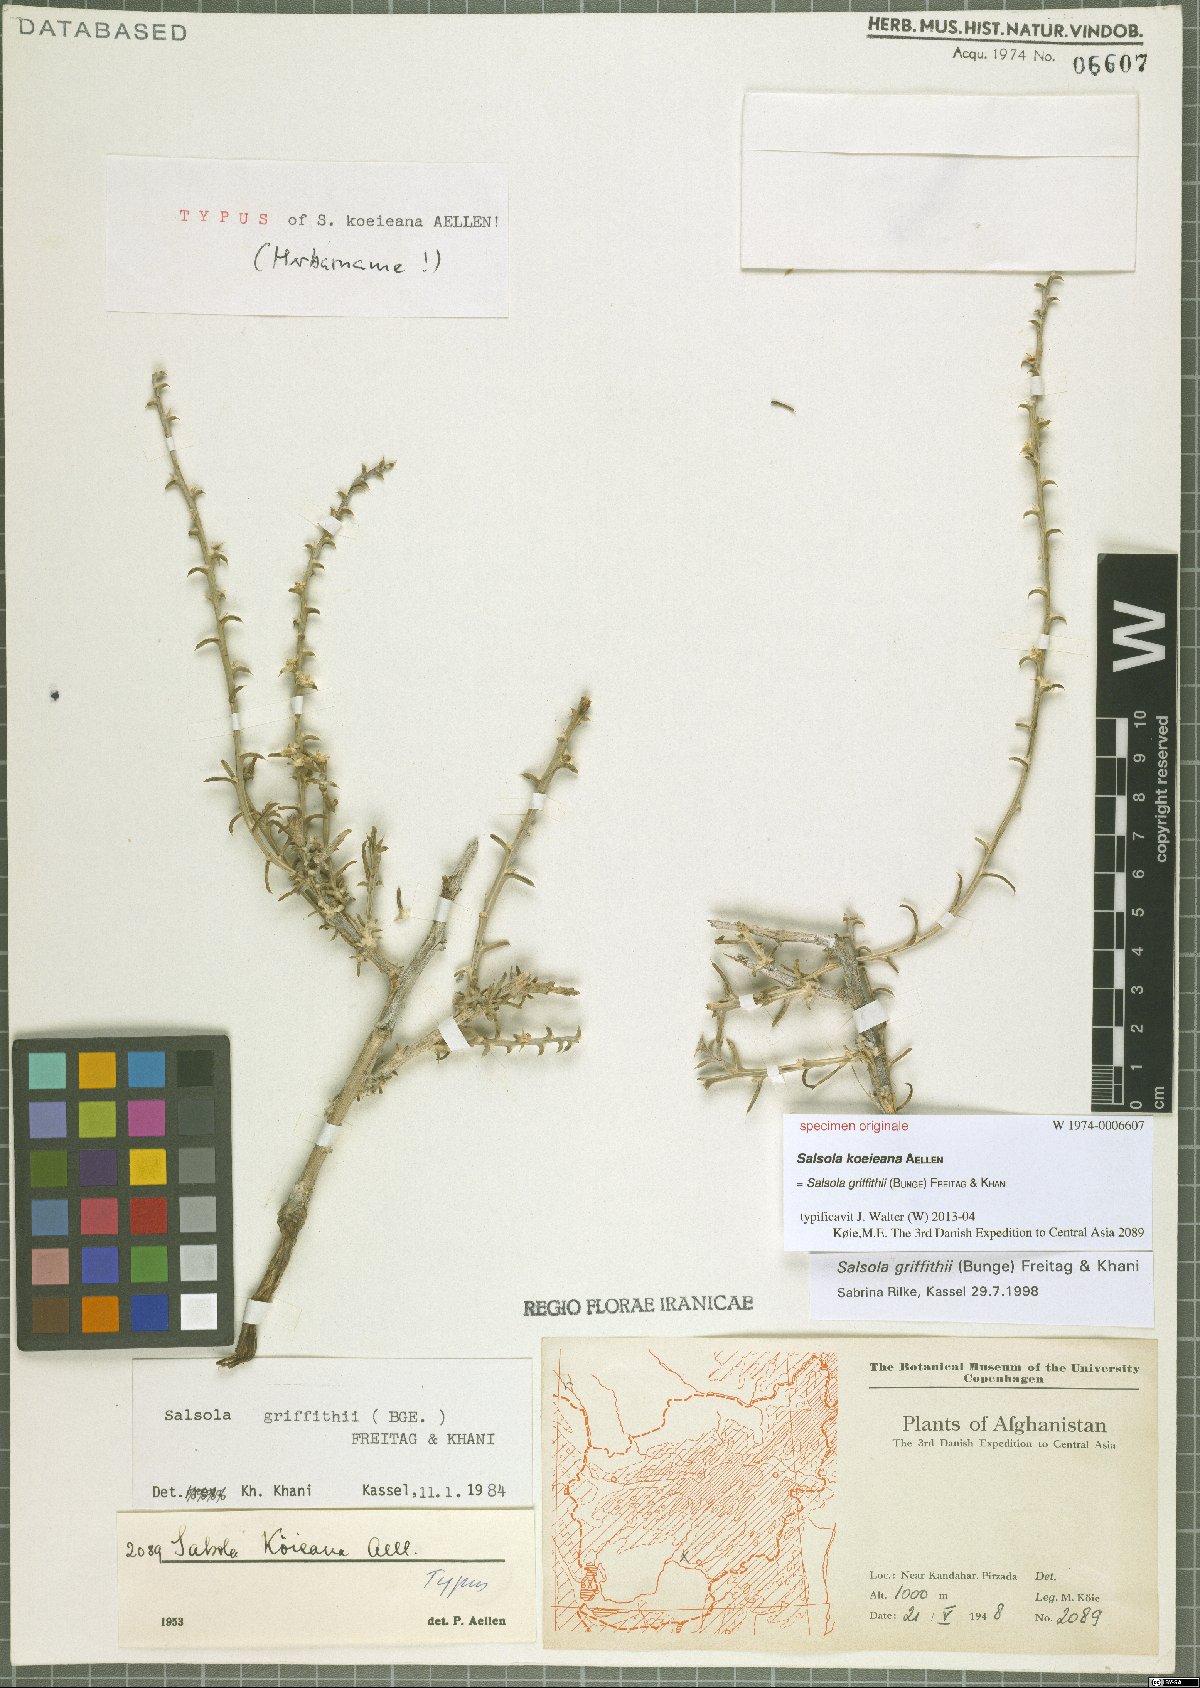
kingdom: Plantae
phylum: Tracheophyta
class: Magnoliopsida
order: Caryophyllales
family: Amaranthaceae
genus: Salsola
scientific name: Salsola griffithii
